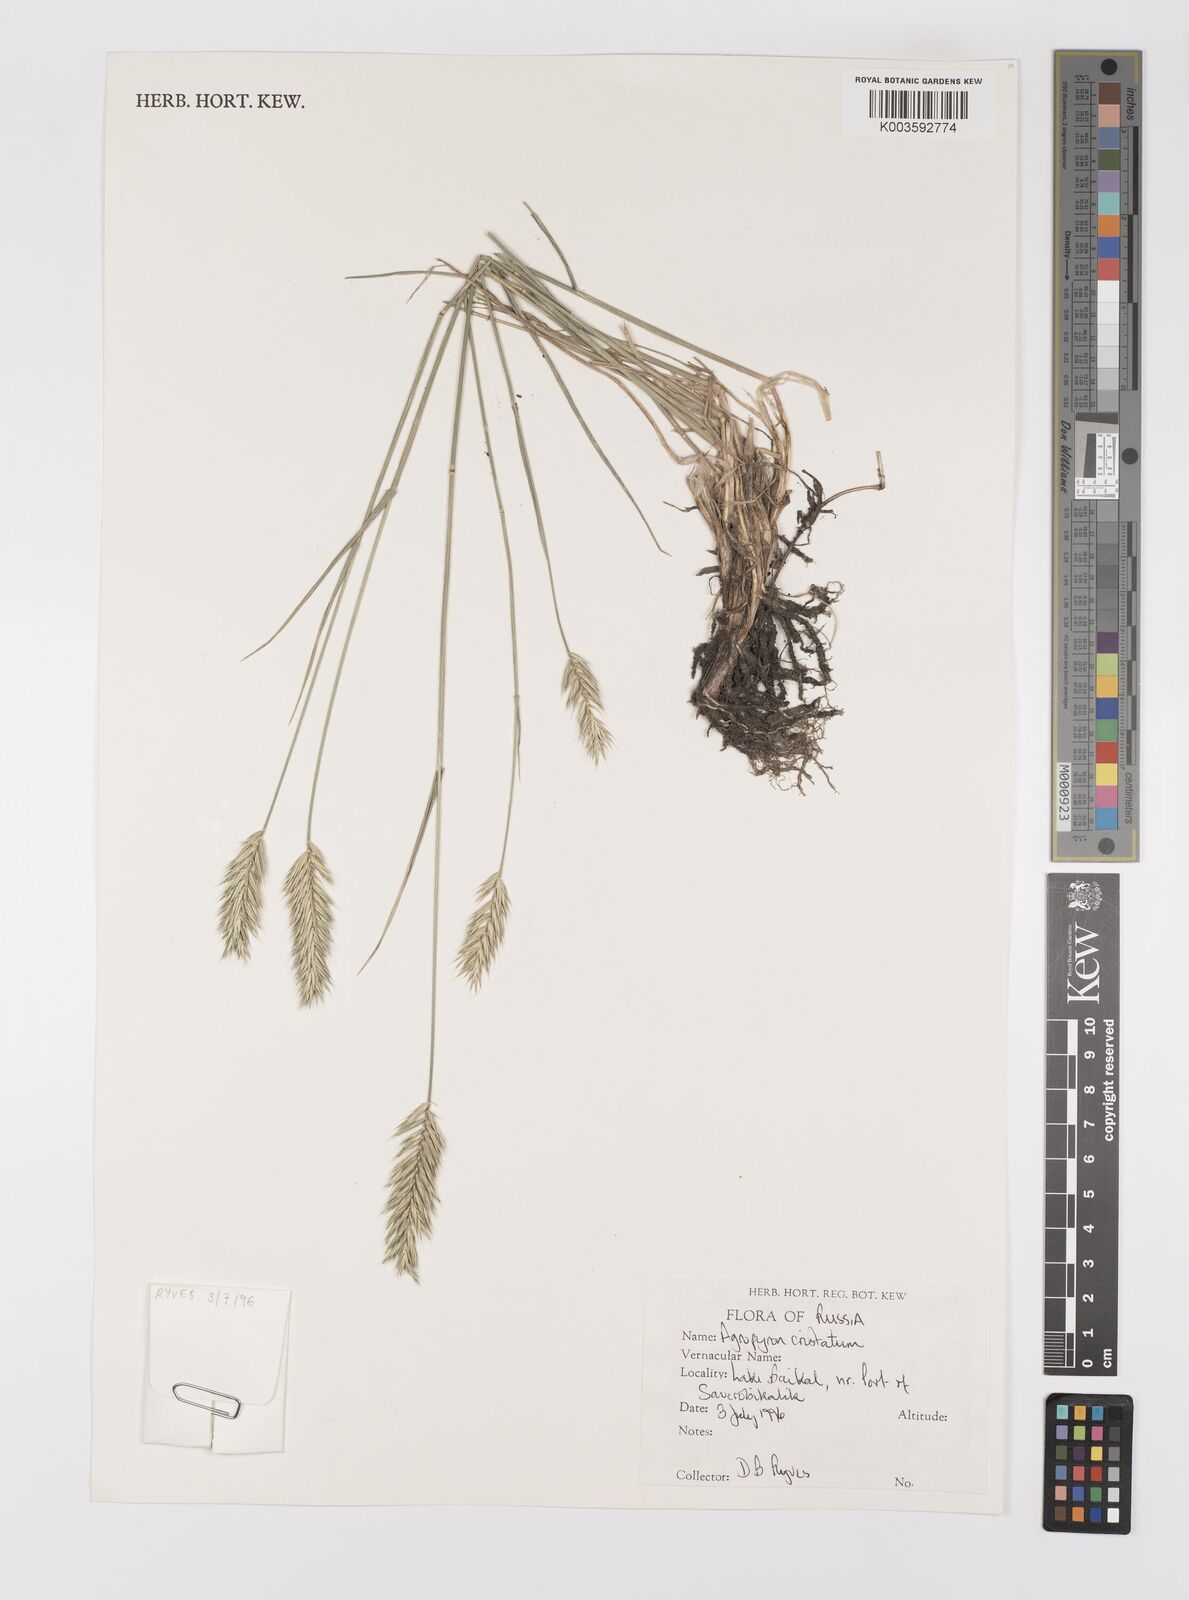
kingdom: Plantae
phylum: Tracheophyta
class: Liliopsida
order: Poales
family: Poaceae
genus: Agropyron
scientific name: Agropyron cristatum
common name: Crested wheatgrass
